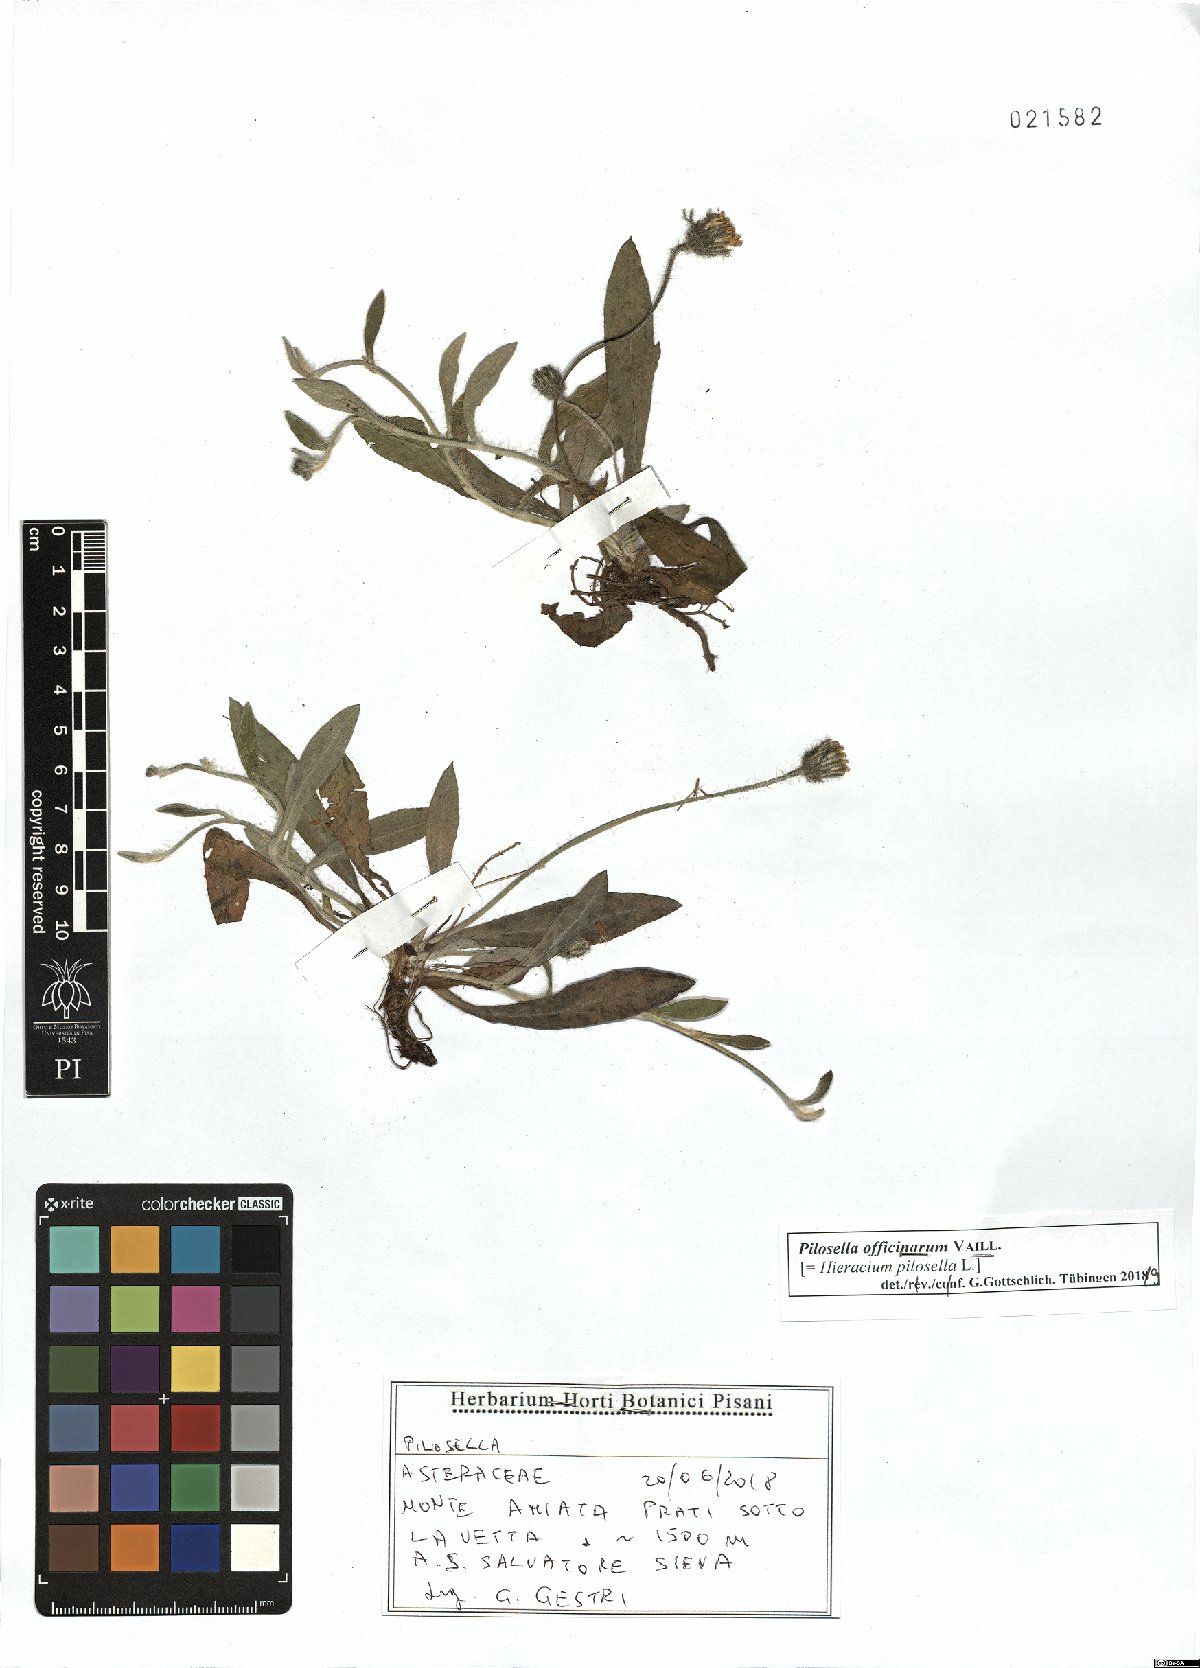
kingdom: Plantae
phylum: Tracheophyta
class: Magnoliopsida
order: Asterales
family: Asteraceae
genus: Pilosella
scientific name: Pilosella officinarum
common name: Mouse-ear hawkweed
